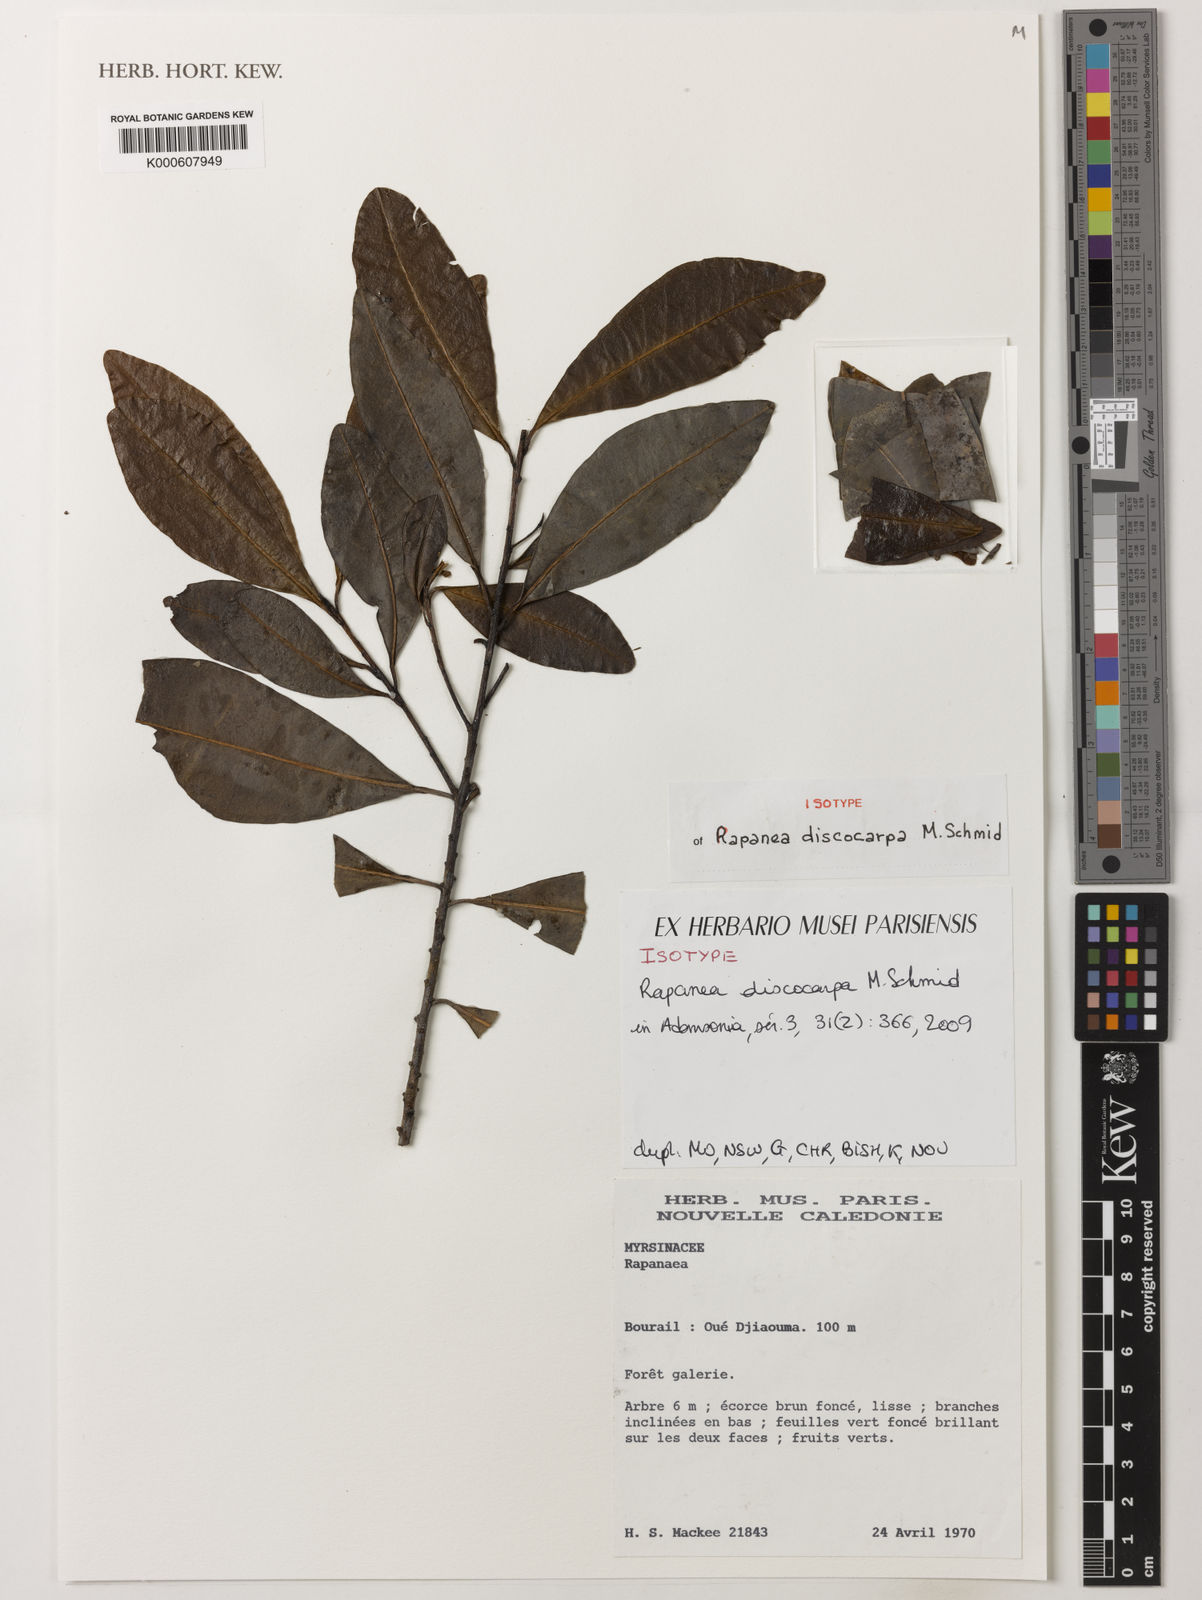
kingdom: Plantae
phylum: Tracheophyta
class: Magnoliopsida
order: Ericales
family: Primulaceae
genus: Myrsine
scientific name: Myrsine discocarpa
